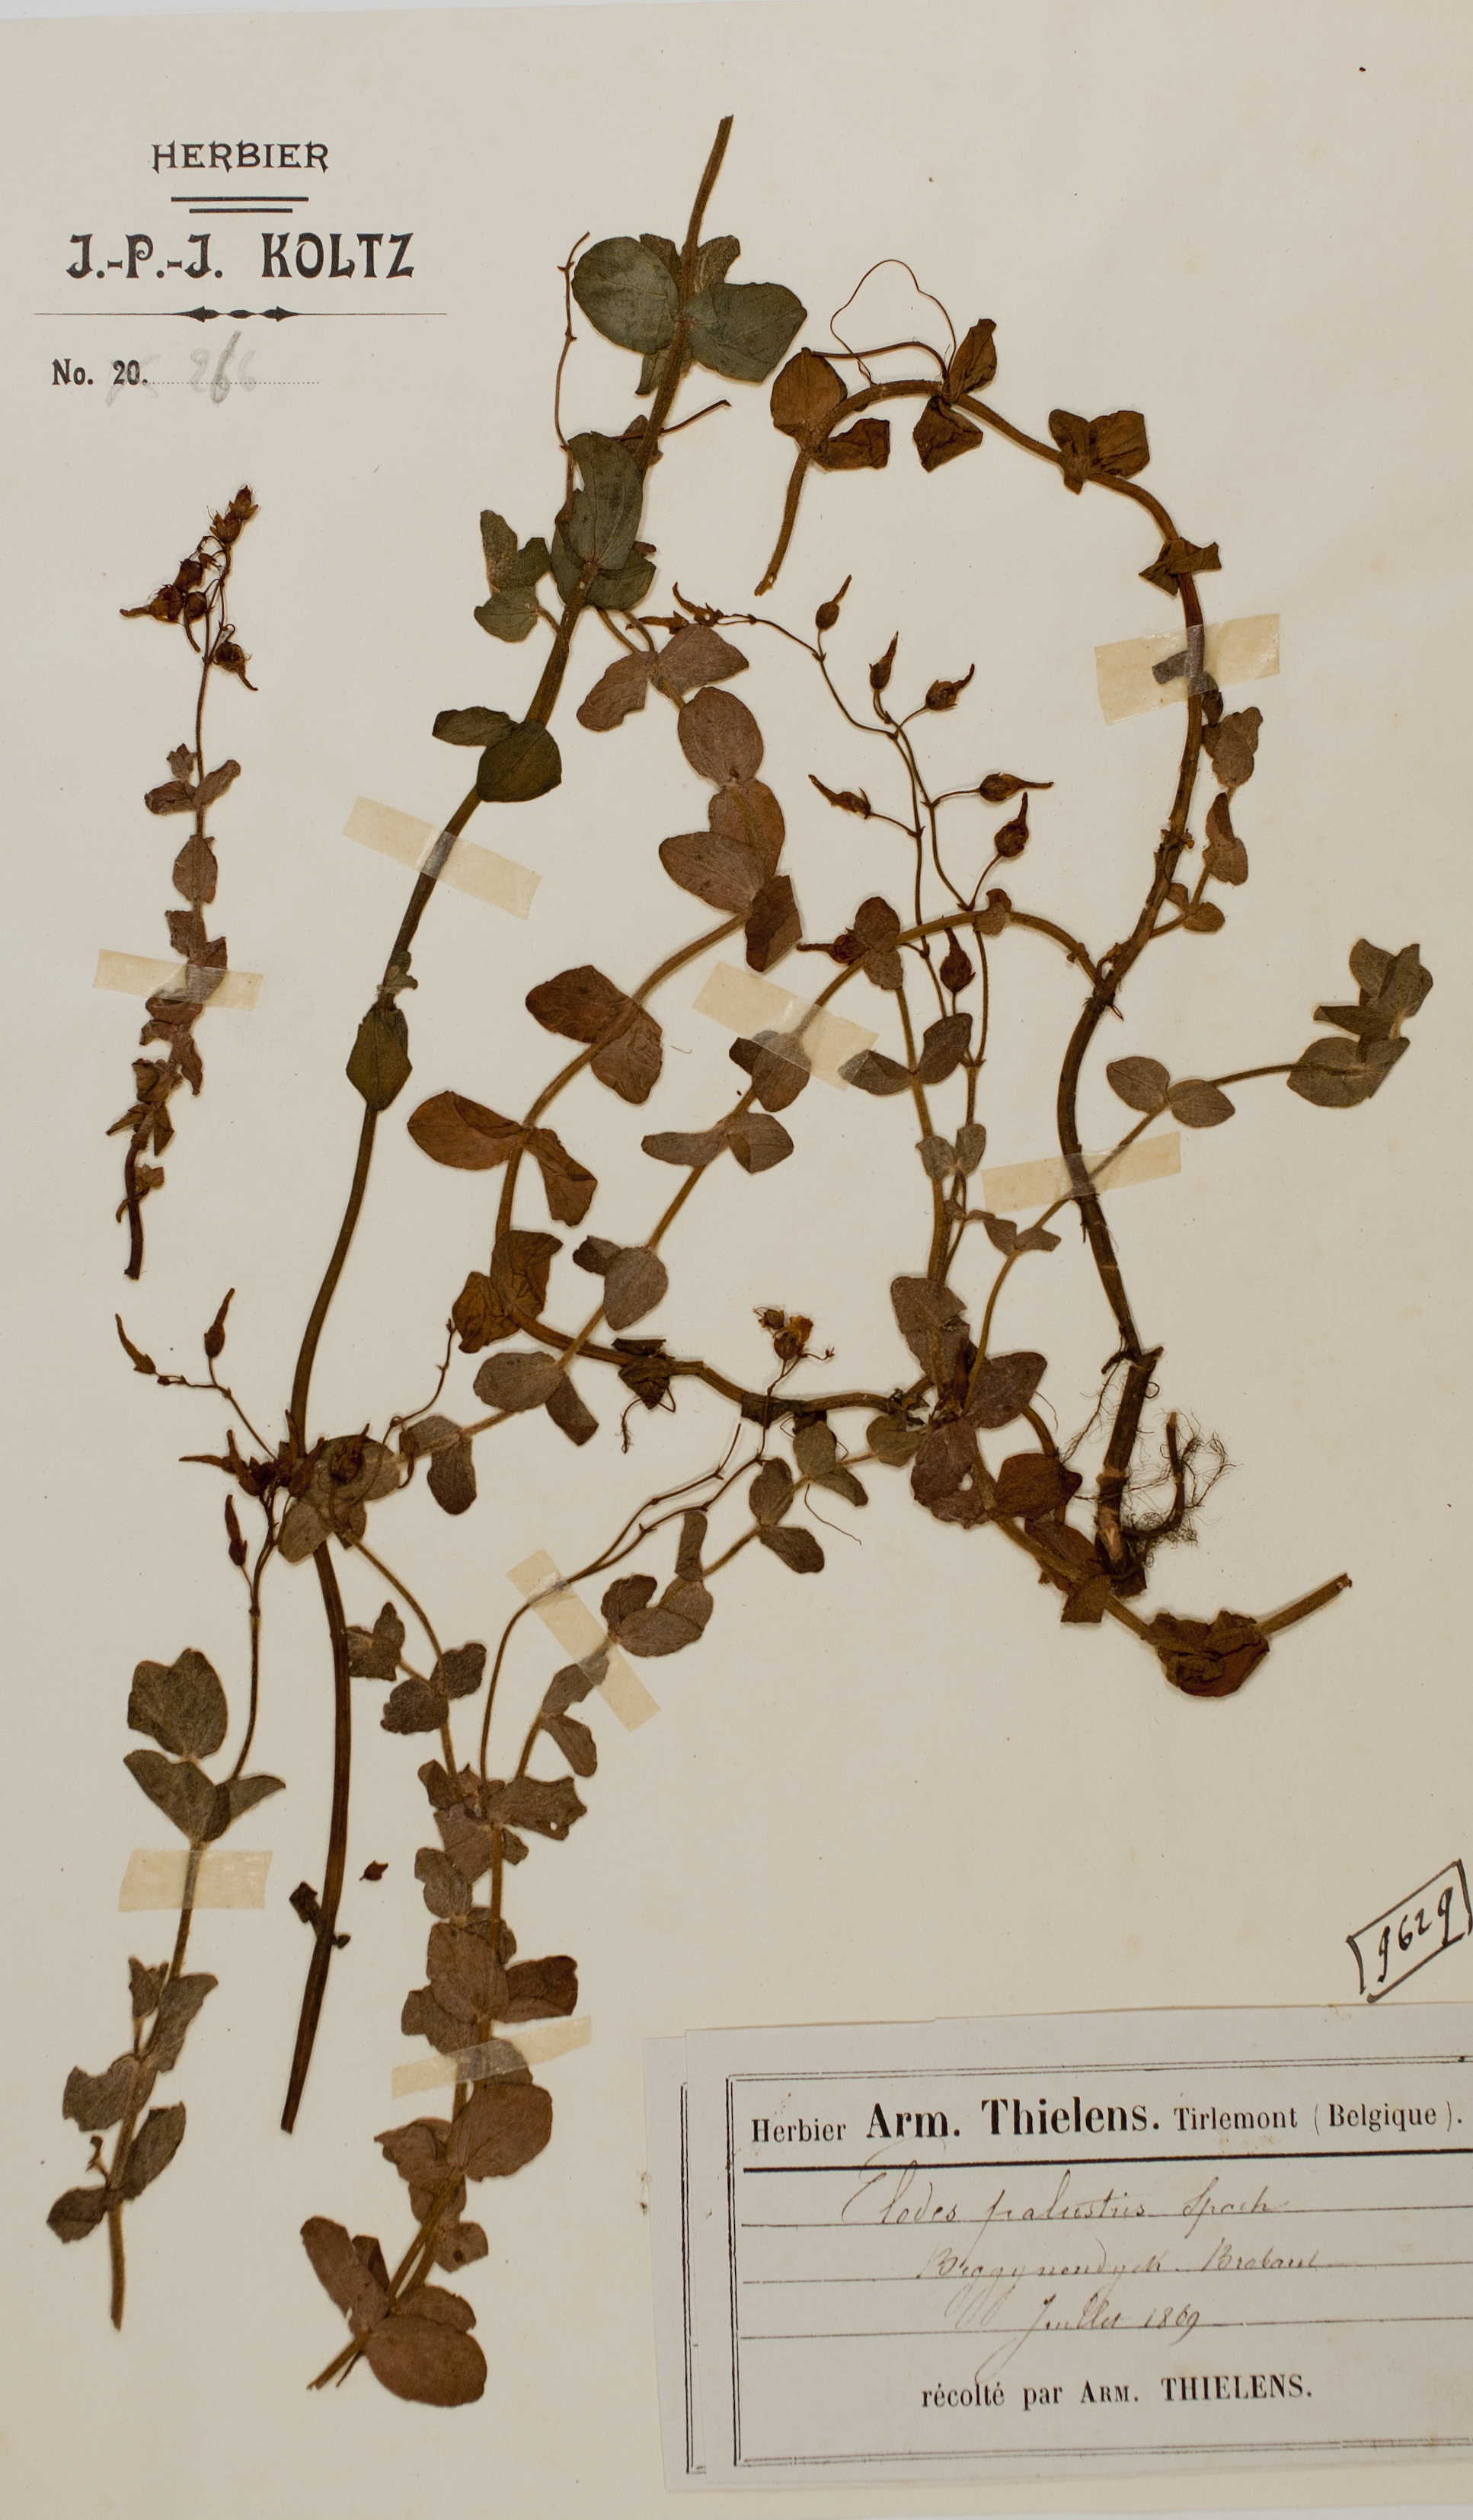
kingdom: Plantae
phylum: Tracheophyta
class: Magnoliopsida
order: Malpighiales
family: Hypericaceae
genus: Hypericum
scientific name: Hypericum elodes
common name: Marsh st. john's-wort
